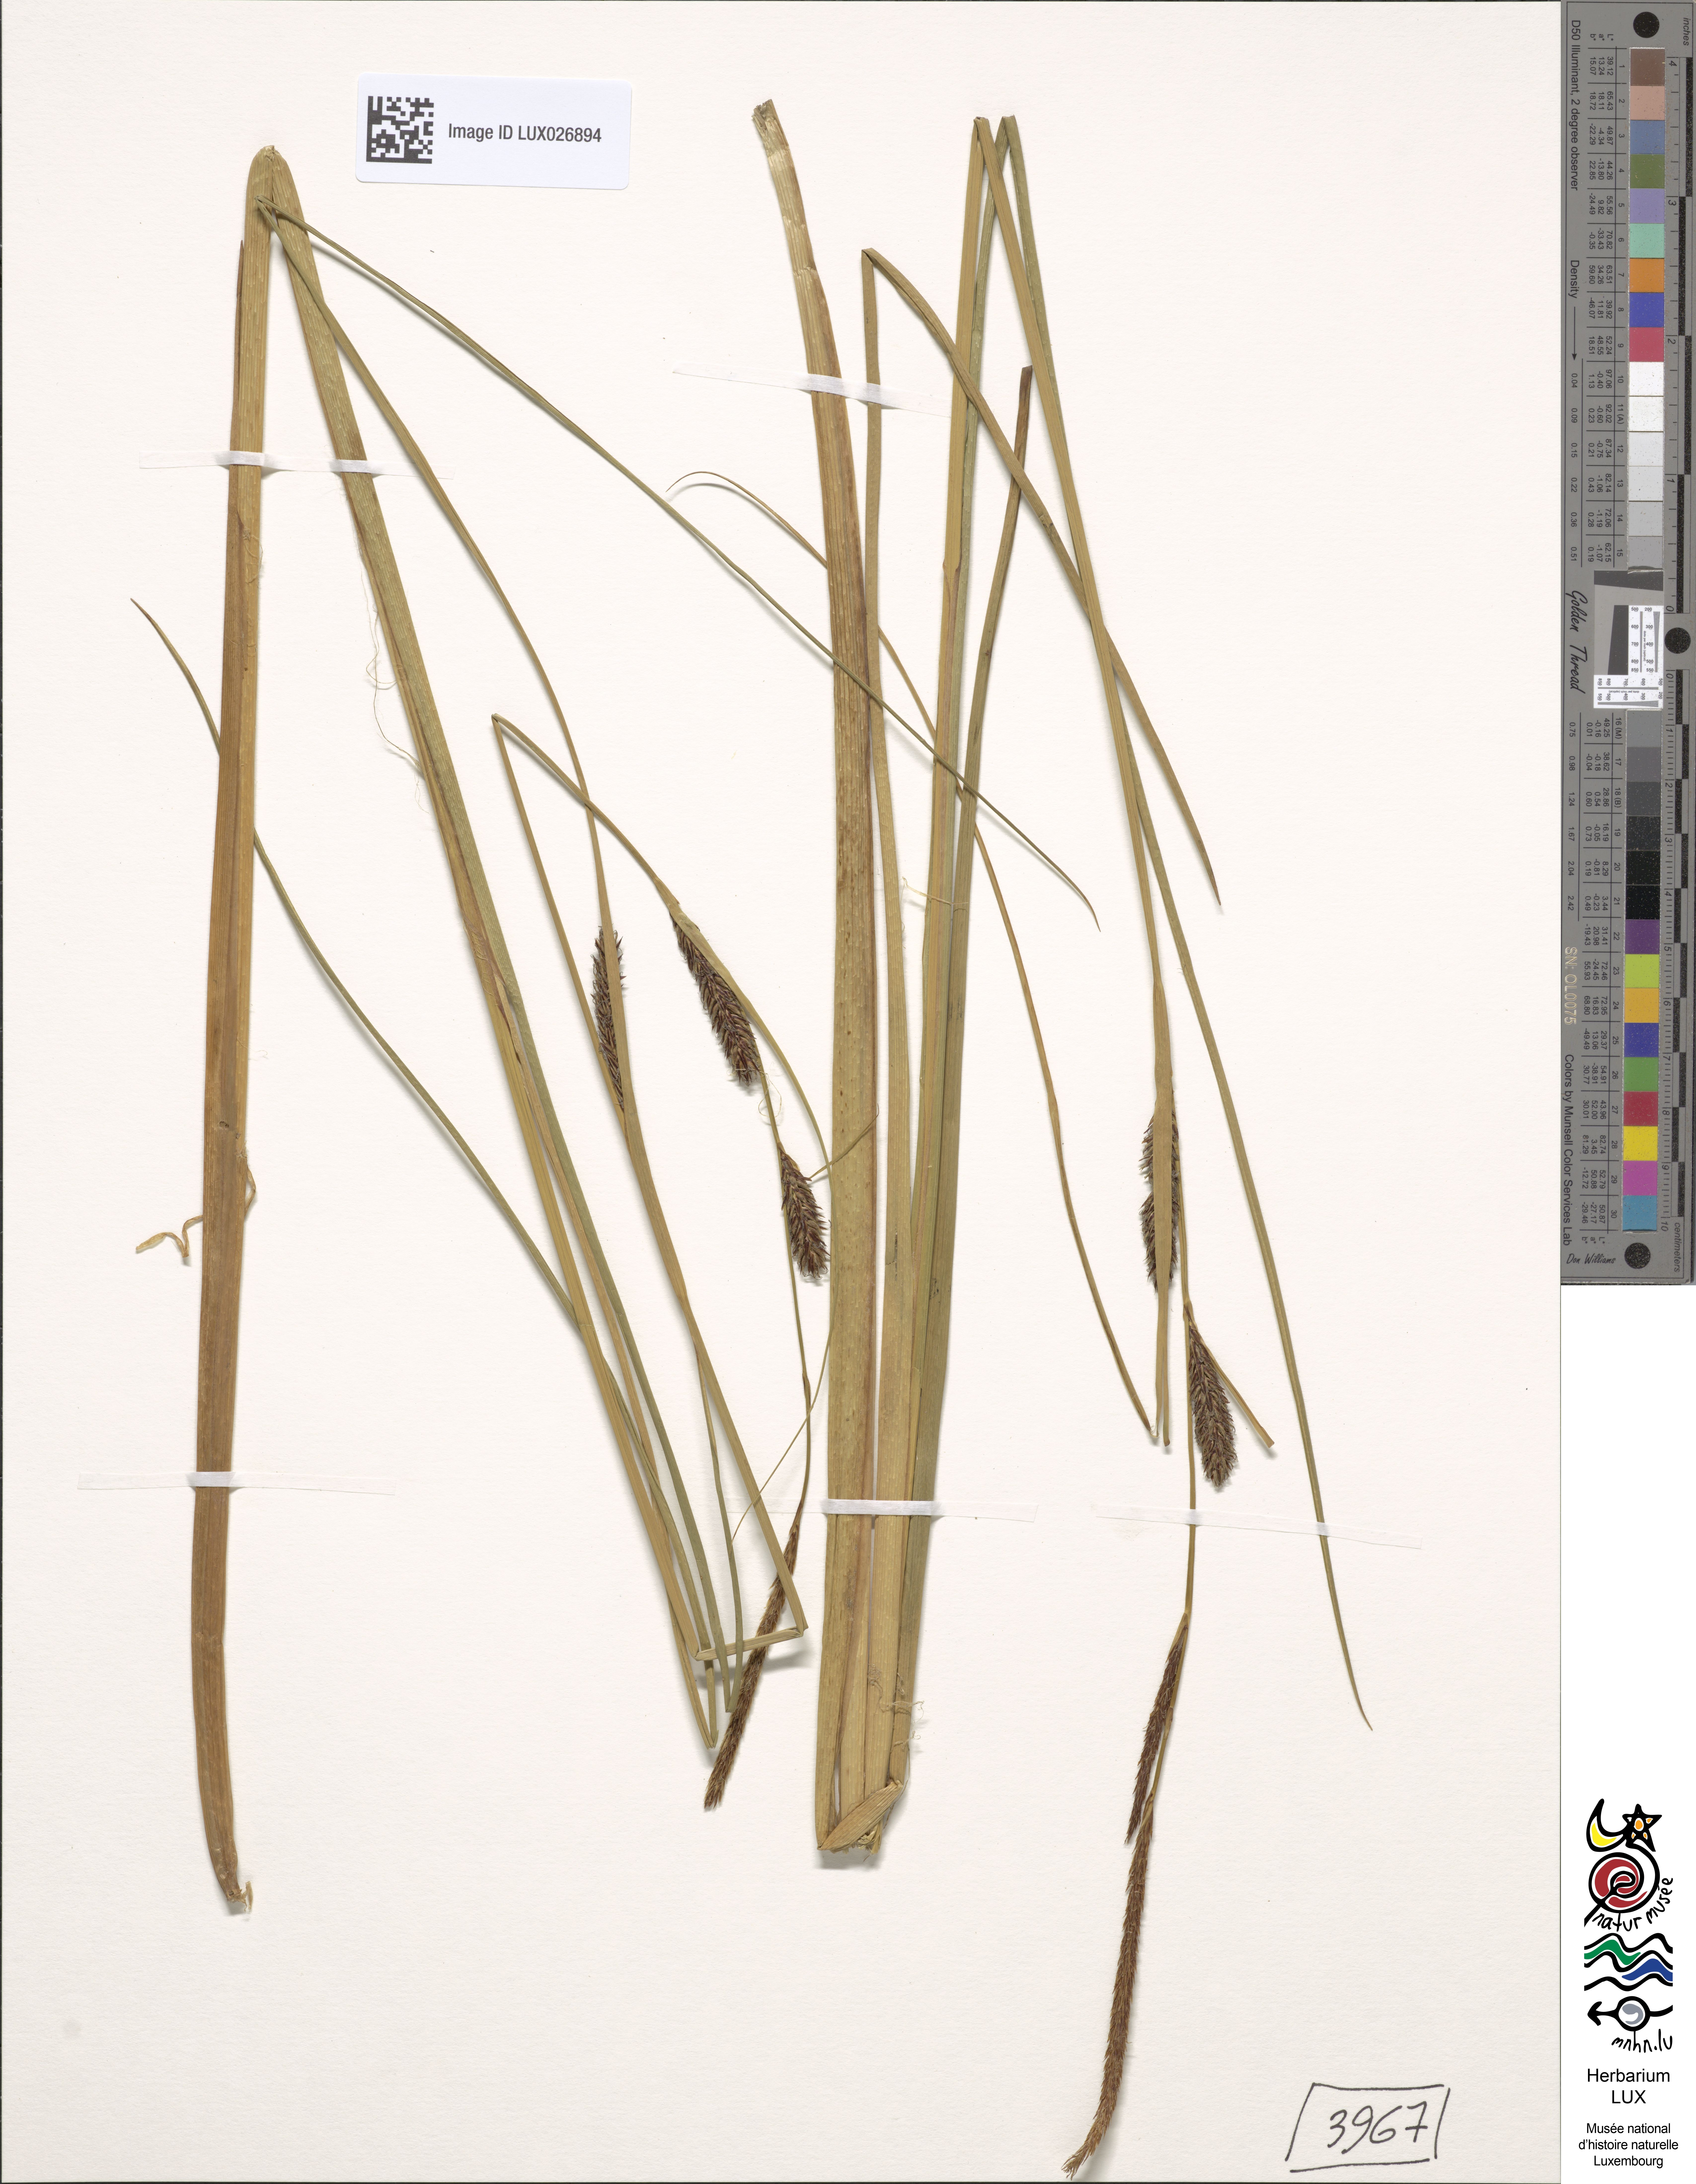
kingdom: Plantae
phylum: Tracheophyta
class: Liliopsida
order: Poales
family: Cyperaceae
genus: Carex
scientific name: Carex lasiocarpa
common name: Slender sedge
